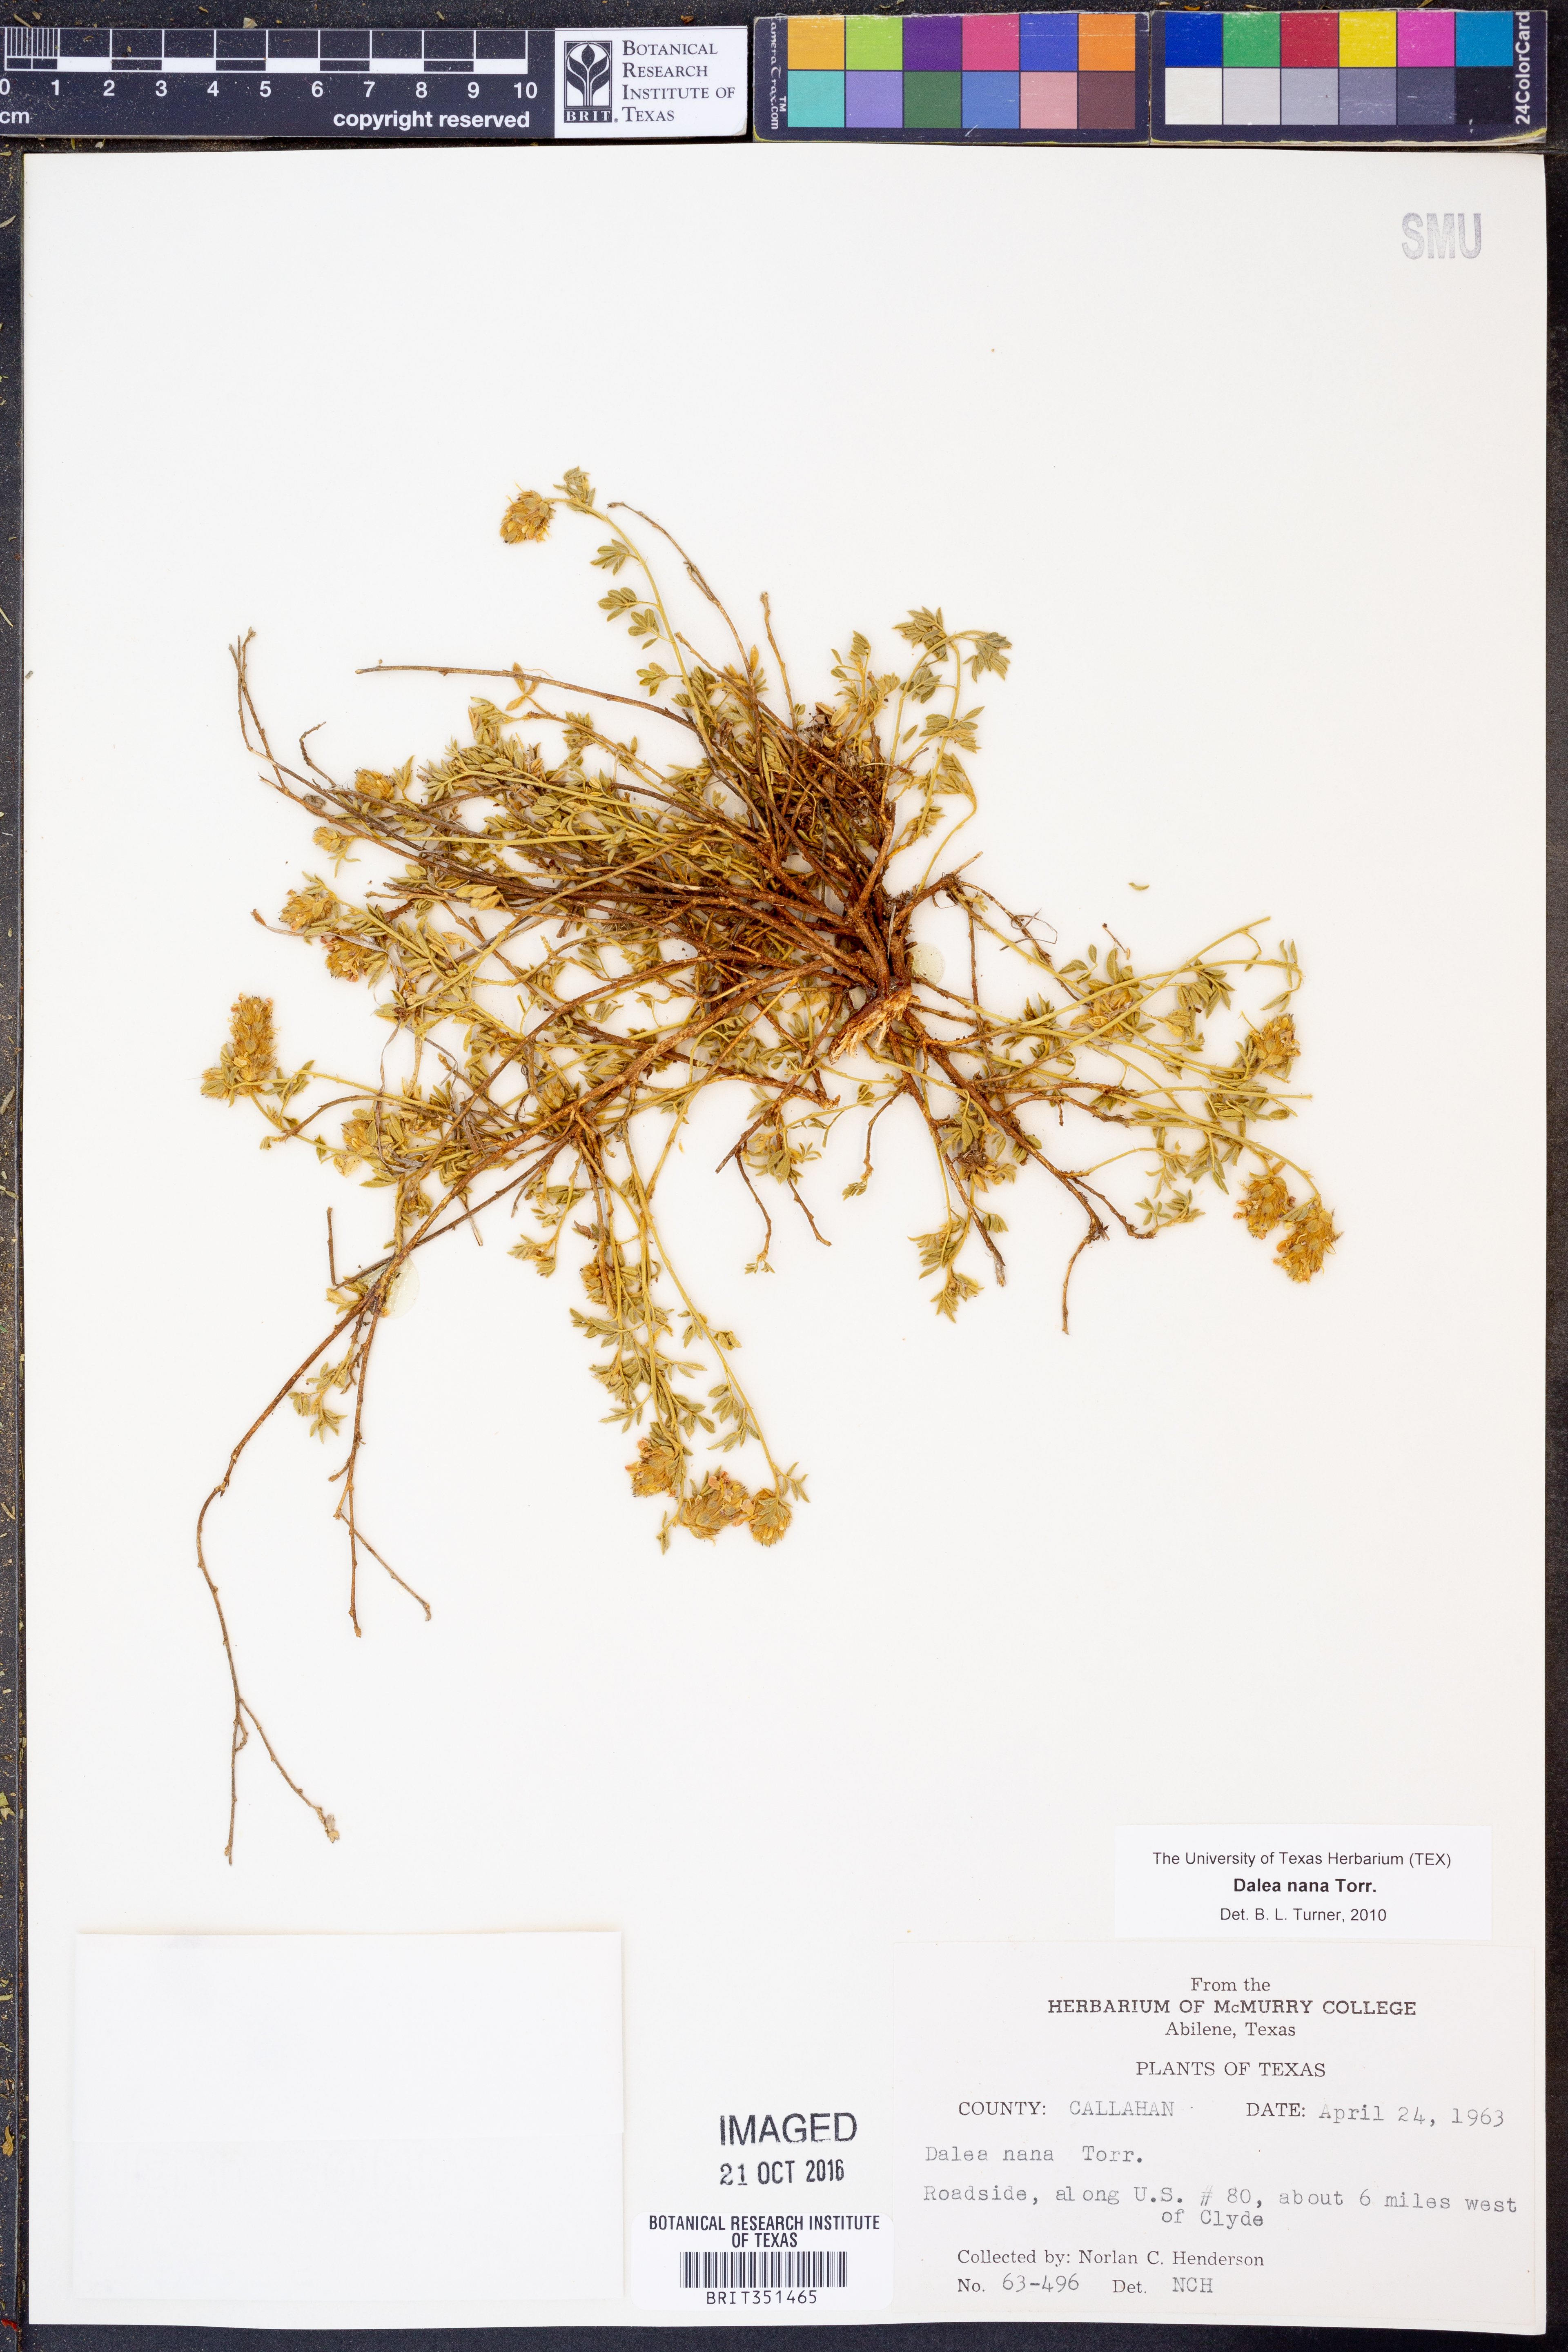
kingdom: Plantae
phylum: Tracheophyta
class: Magnoliopsida
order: Fabales
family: Fabaceae
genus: Dalea
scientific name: Dalea nana
